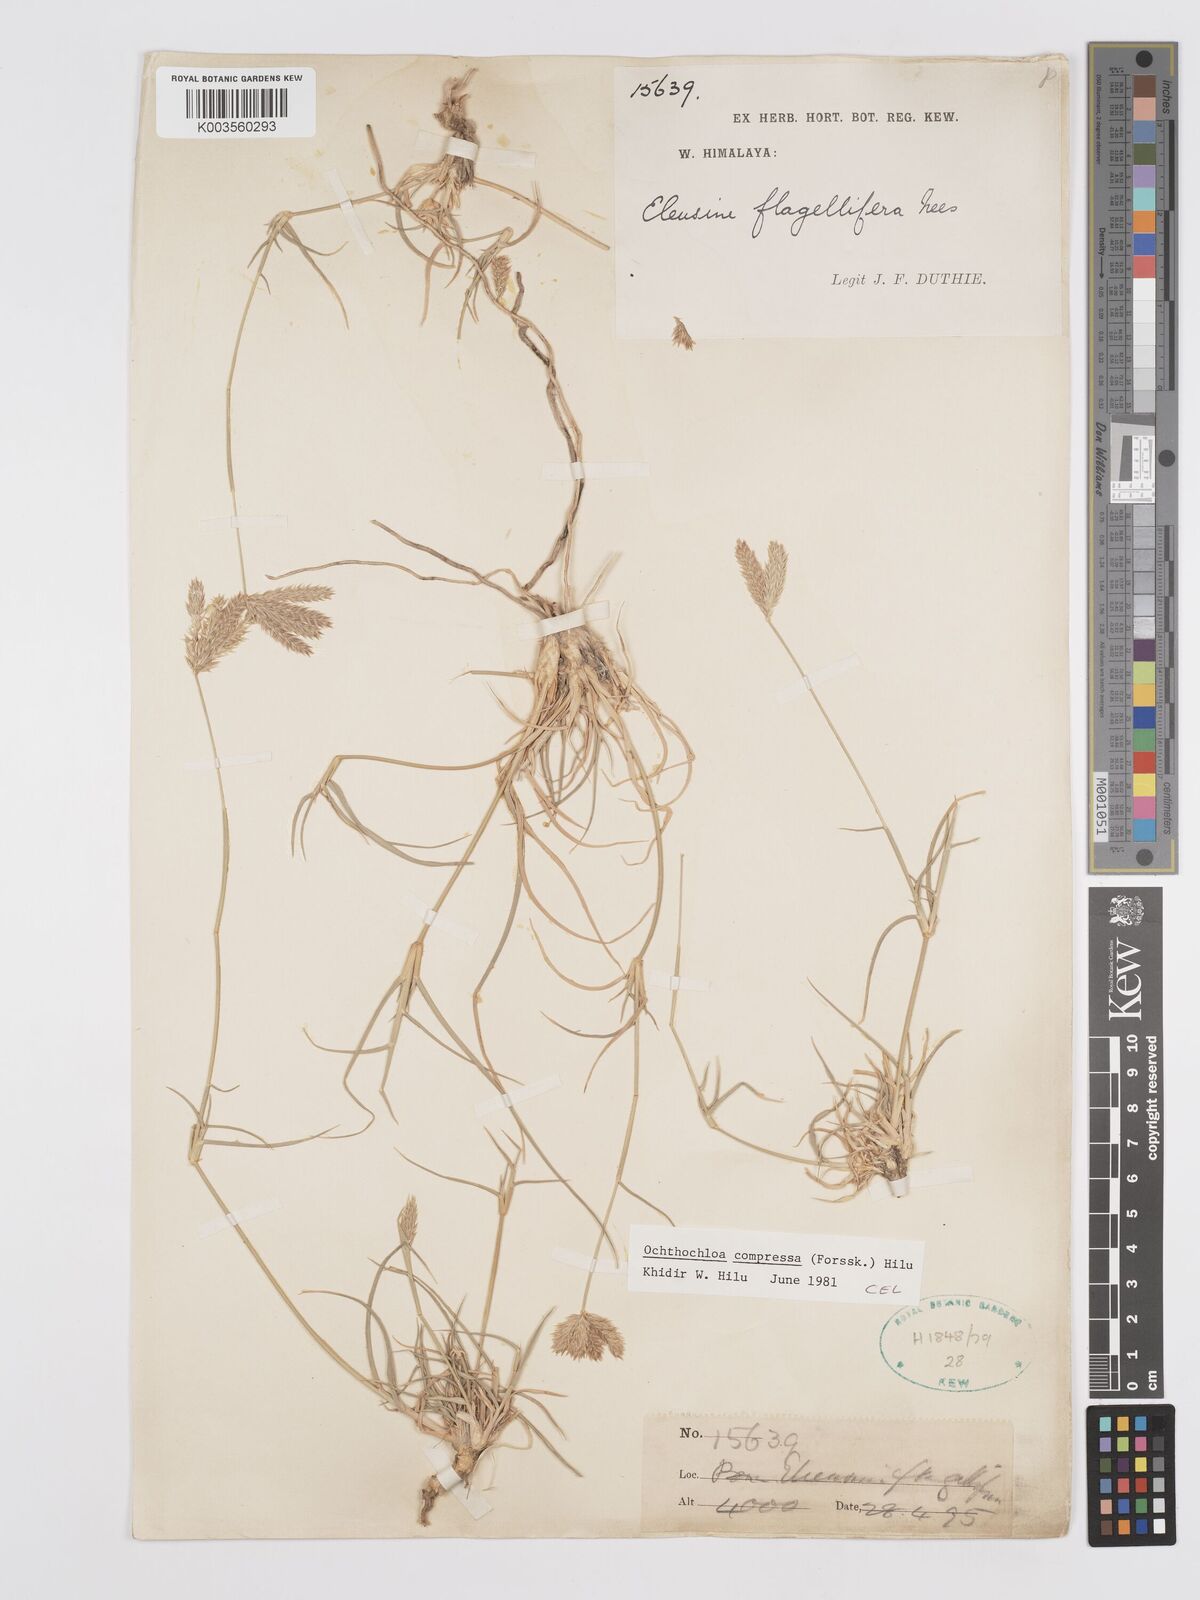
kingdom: Plantae
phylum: Tracheophyta
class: Liliopsida
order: Poales
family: Poaceae
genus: Chloris
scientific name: Chloris flagellifera
